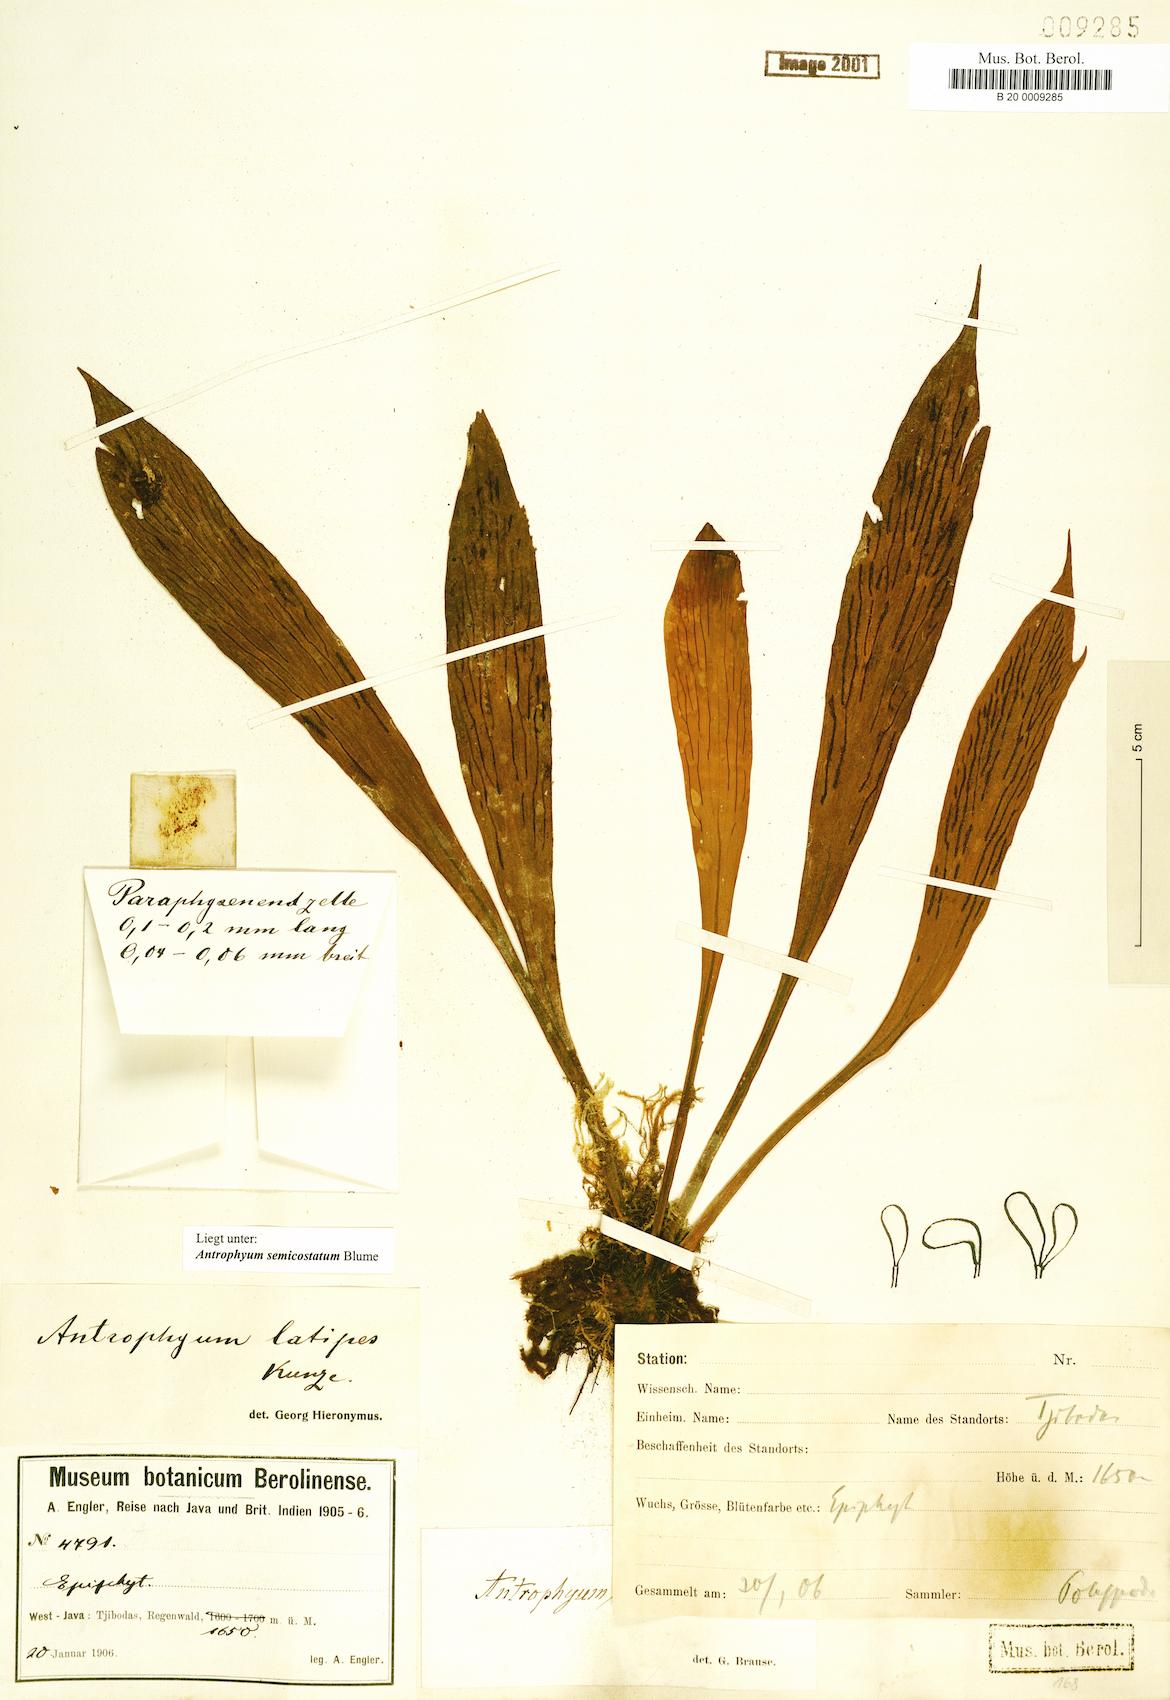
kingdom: Plantae
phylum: Tracheophyta
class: Polypodiopsida
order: Polypodiales
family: Pteridaceae
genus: Antrophyum
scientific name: Antrophyum semicostatum
